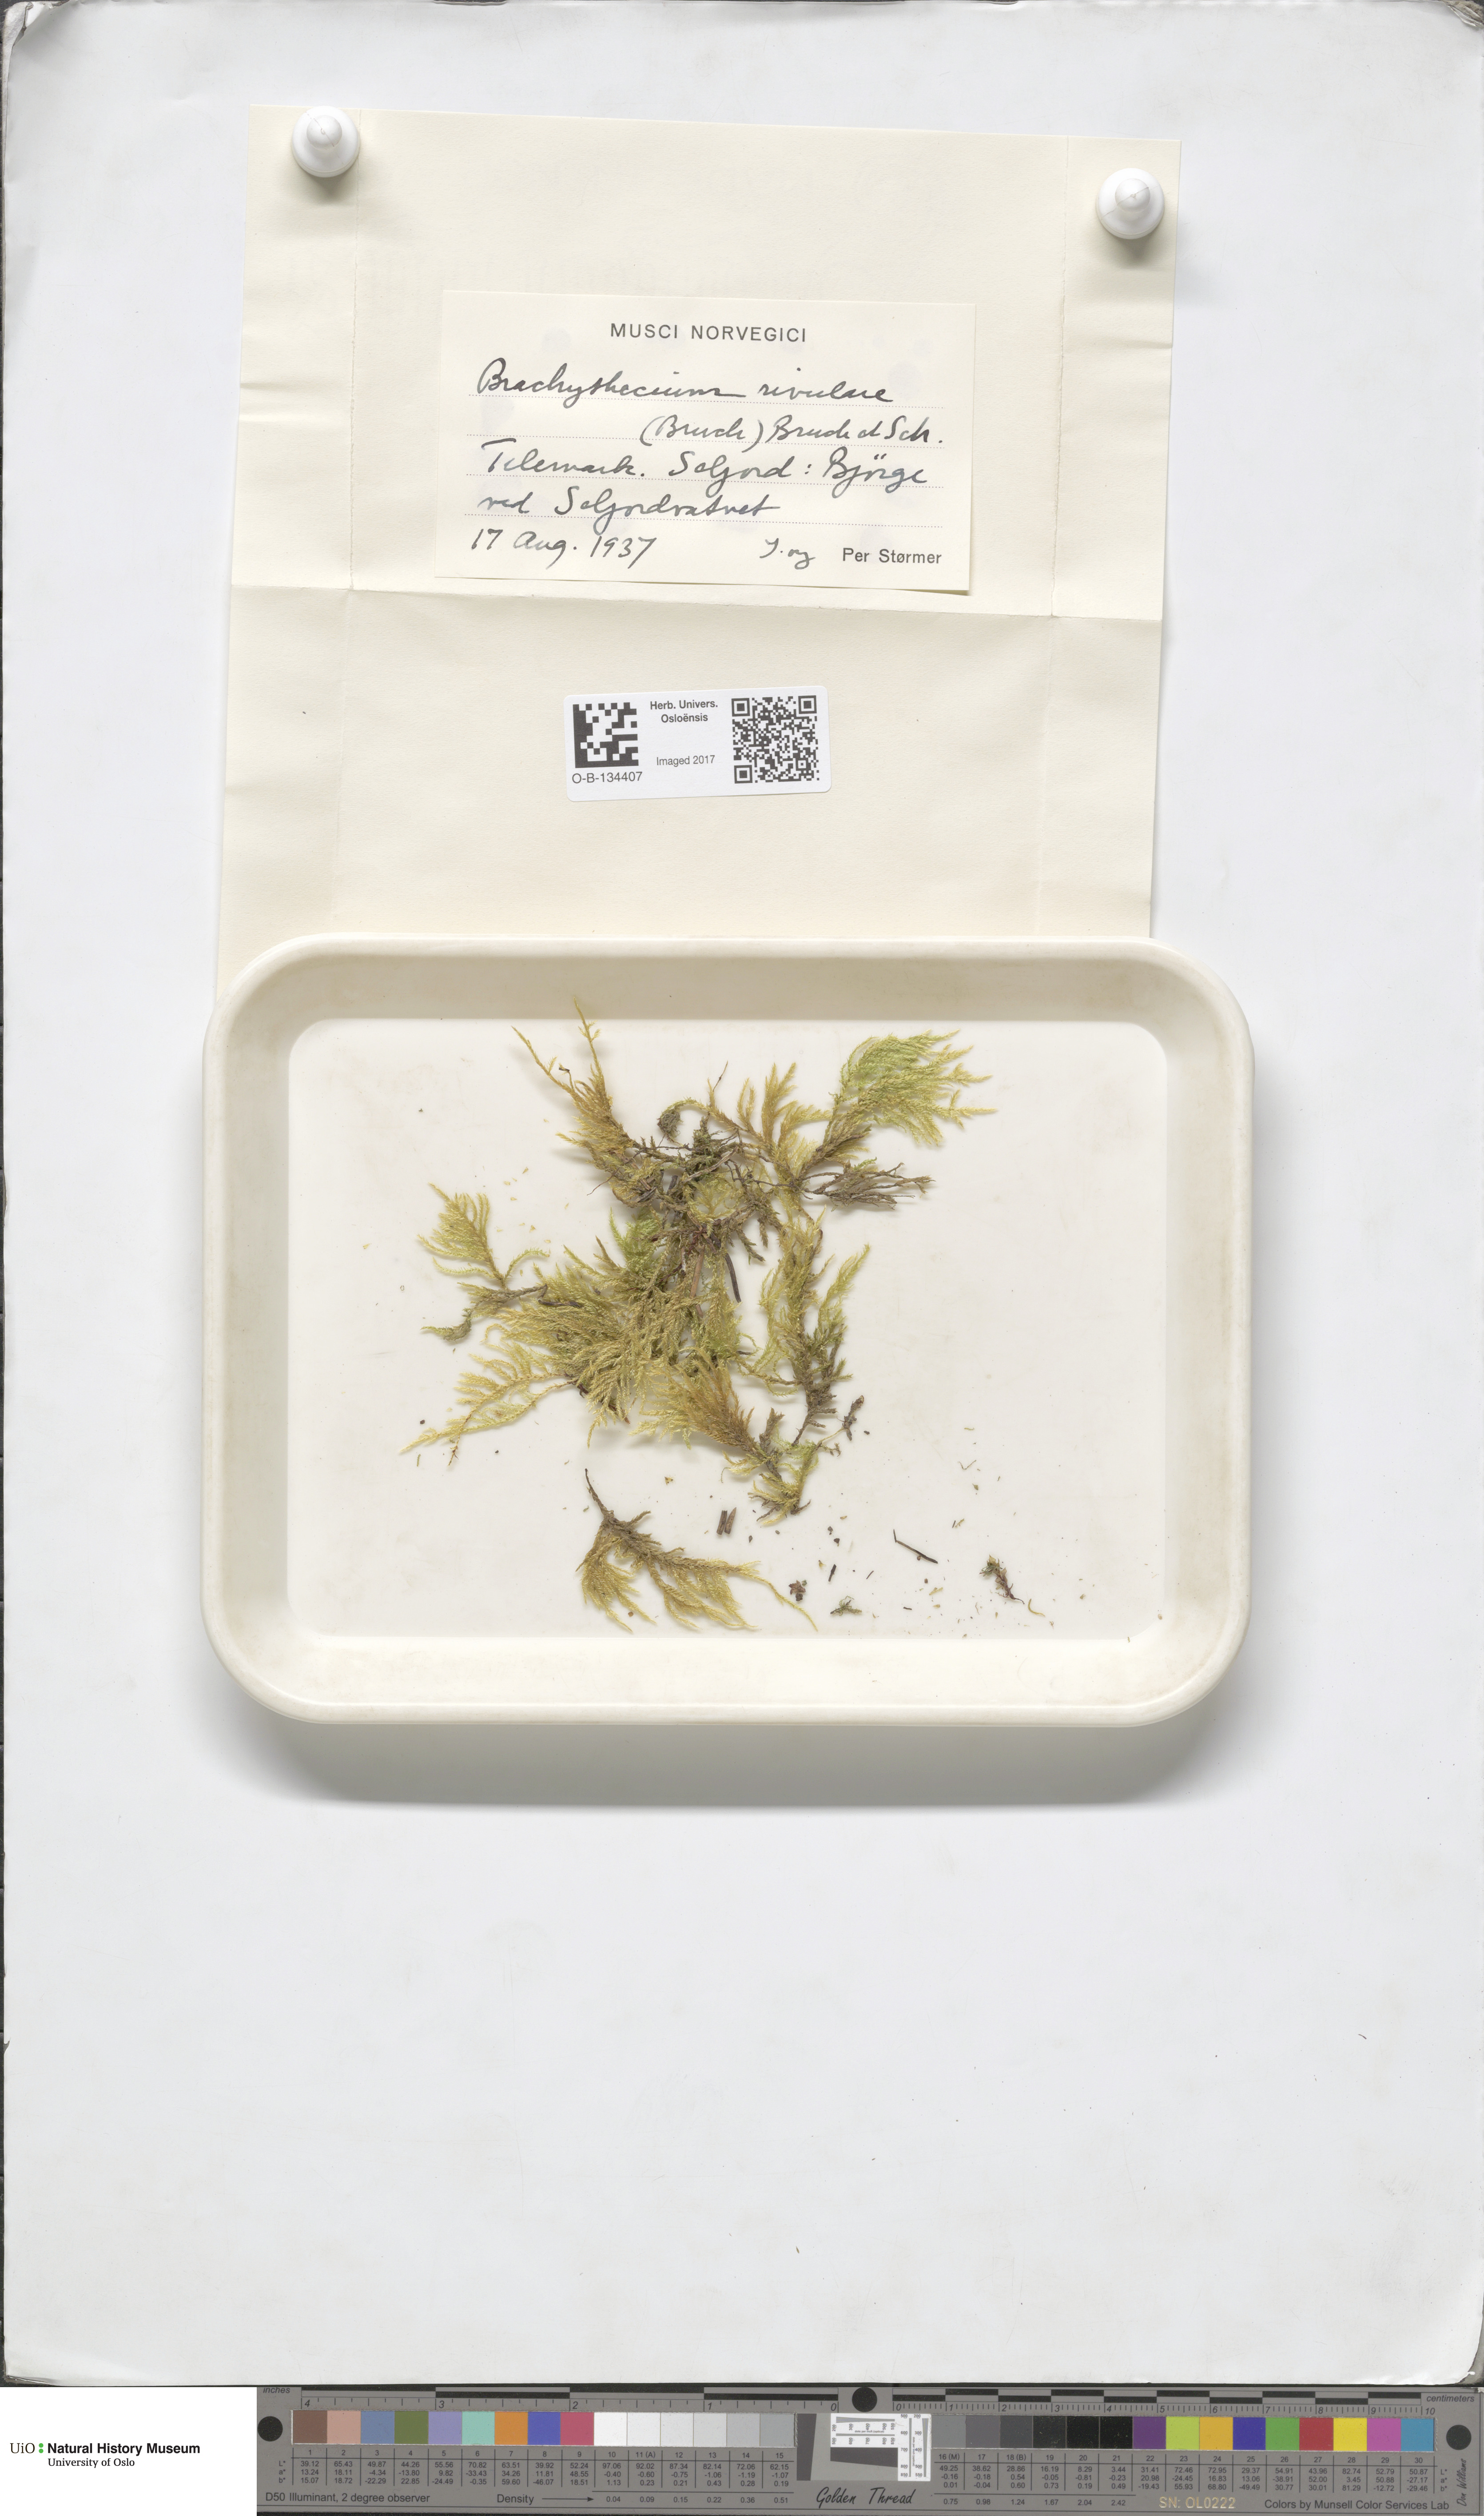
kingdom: Plantae
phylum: Bryophyta
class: Bryopsida
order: Hypnales
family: Brachytheciaceae
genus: Brachythecium
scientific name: Brachythecium rivulare
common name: River ragged moss
